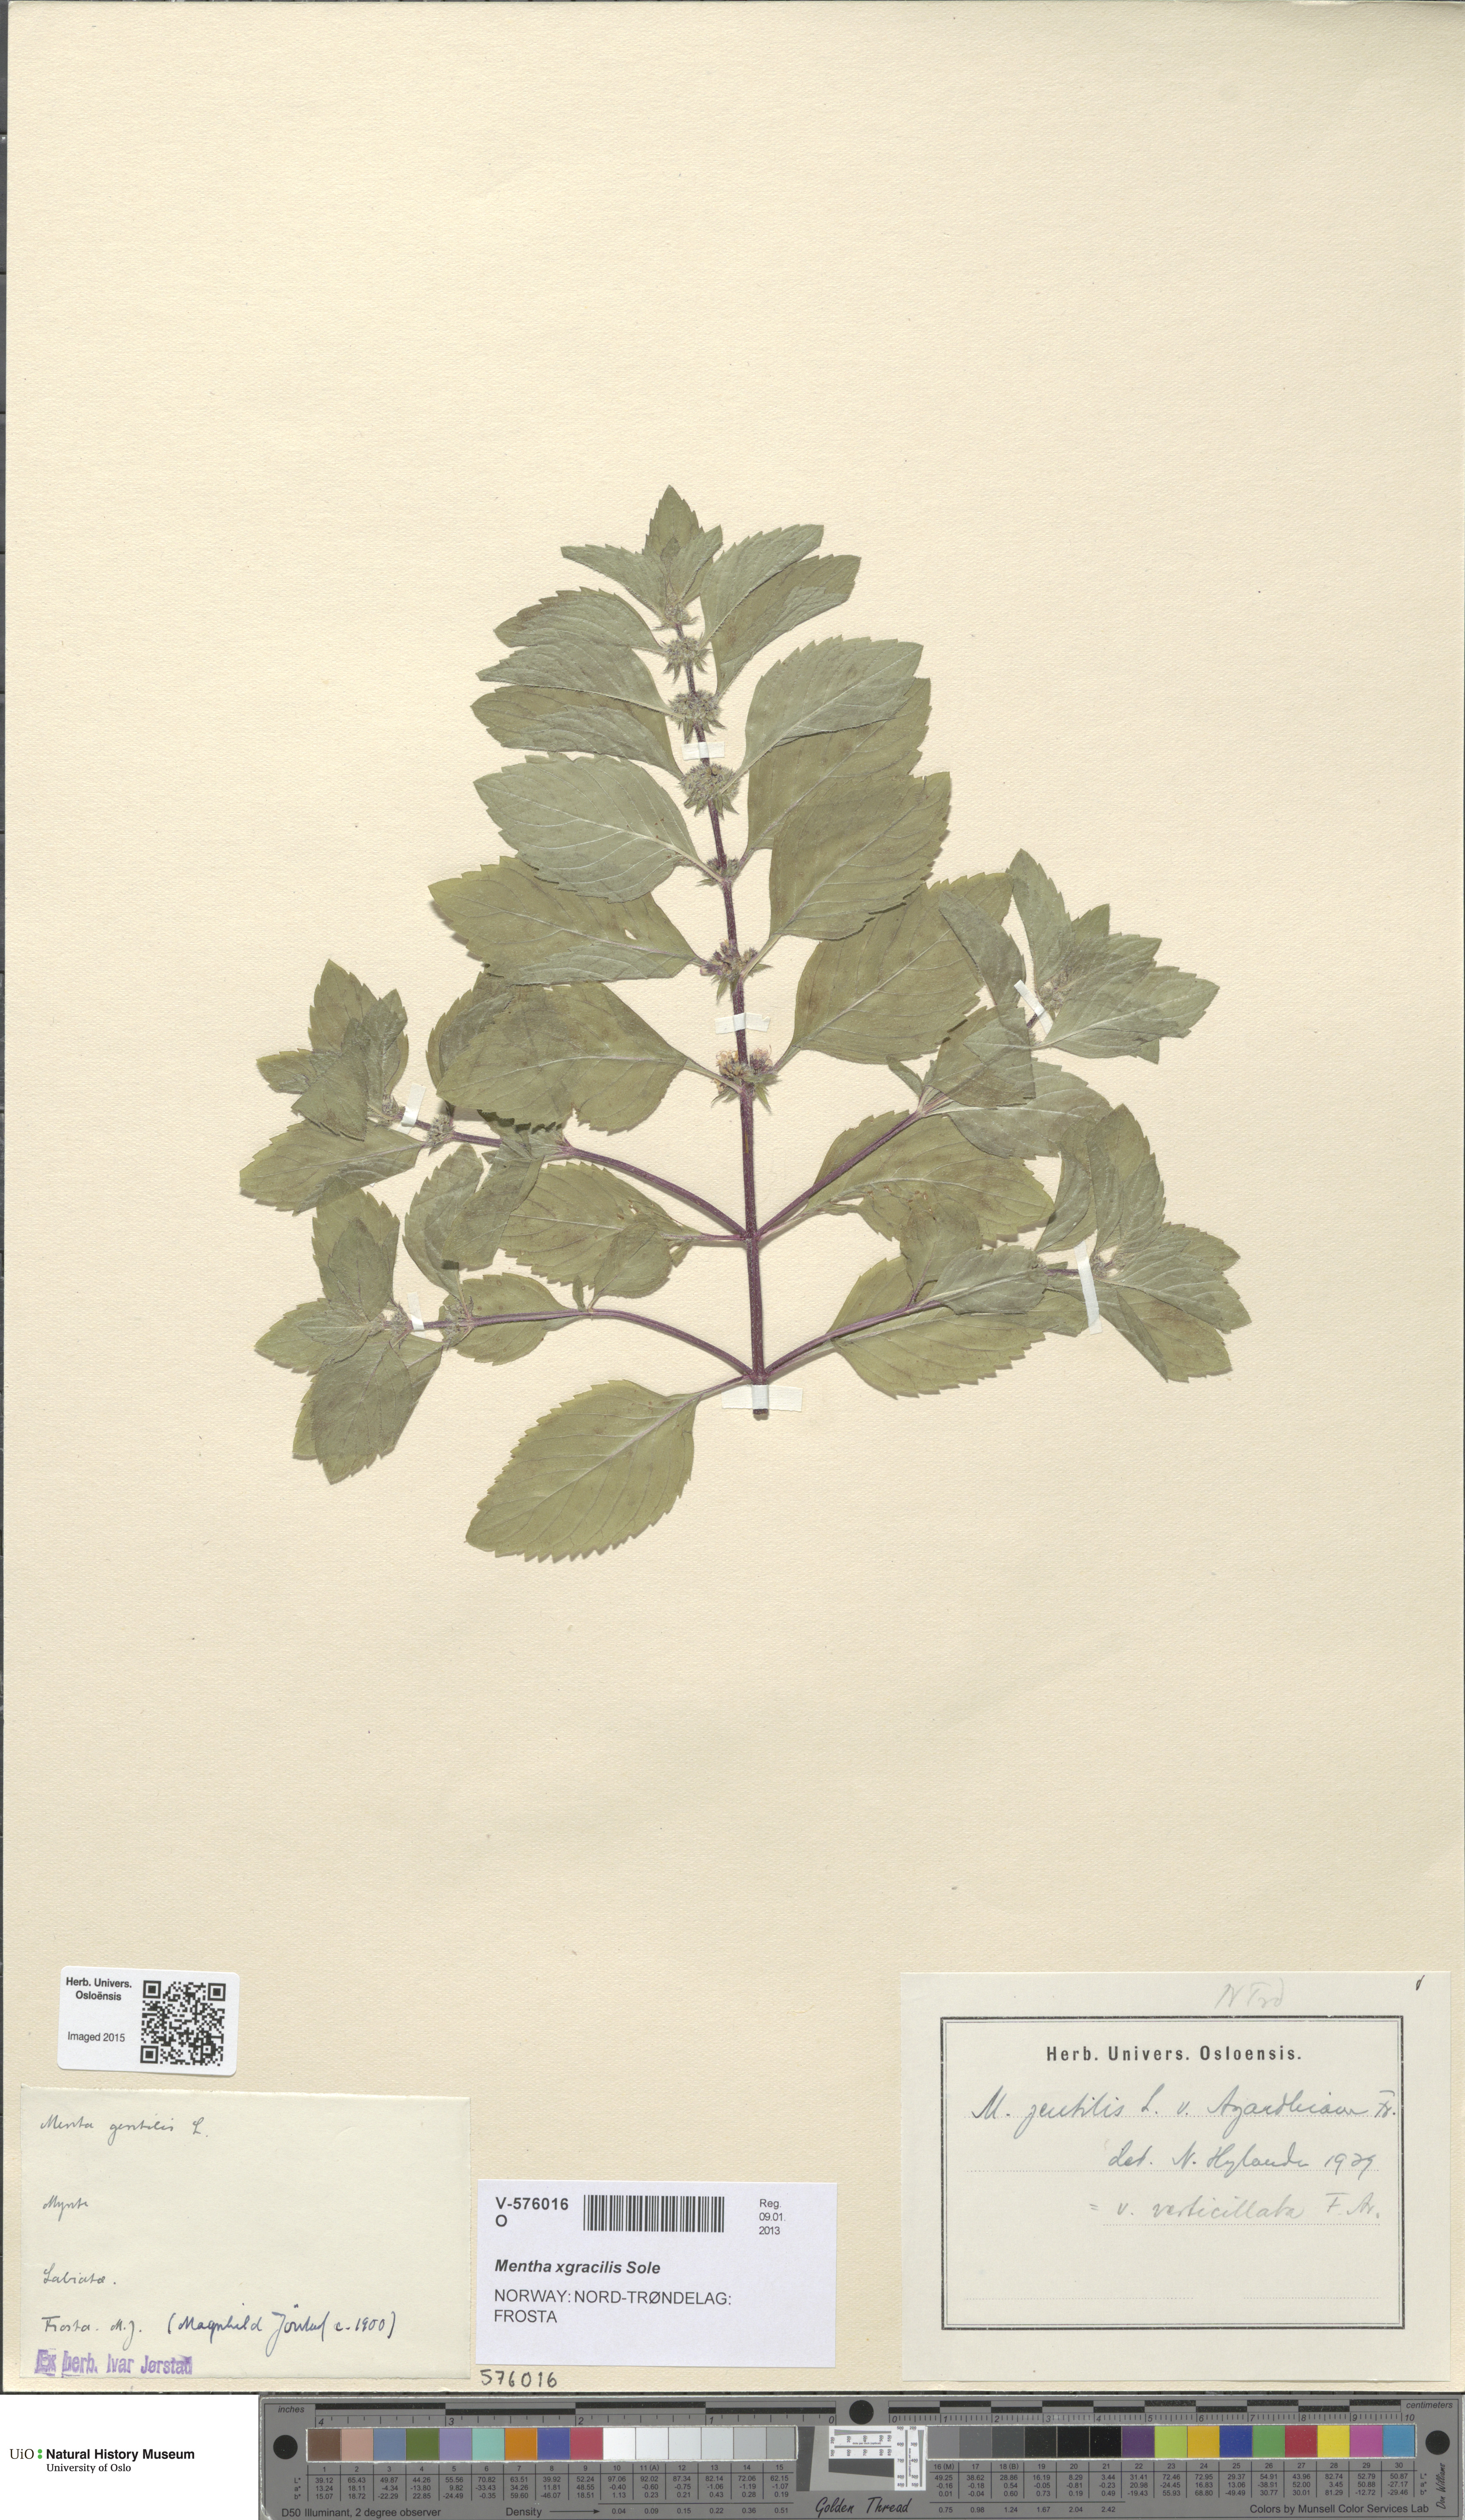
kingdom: Plantae
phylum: Tracheophyta
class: Magnoliopsida
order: Lamiales
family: Lamiaceae
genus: Mentha
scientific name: Mentha arvensis
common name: Corn mint
